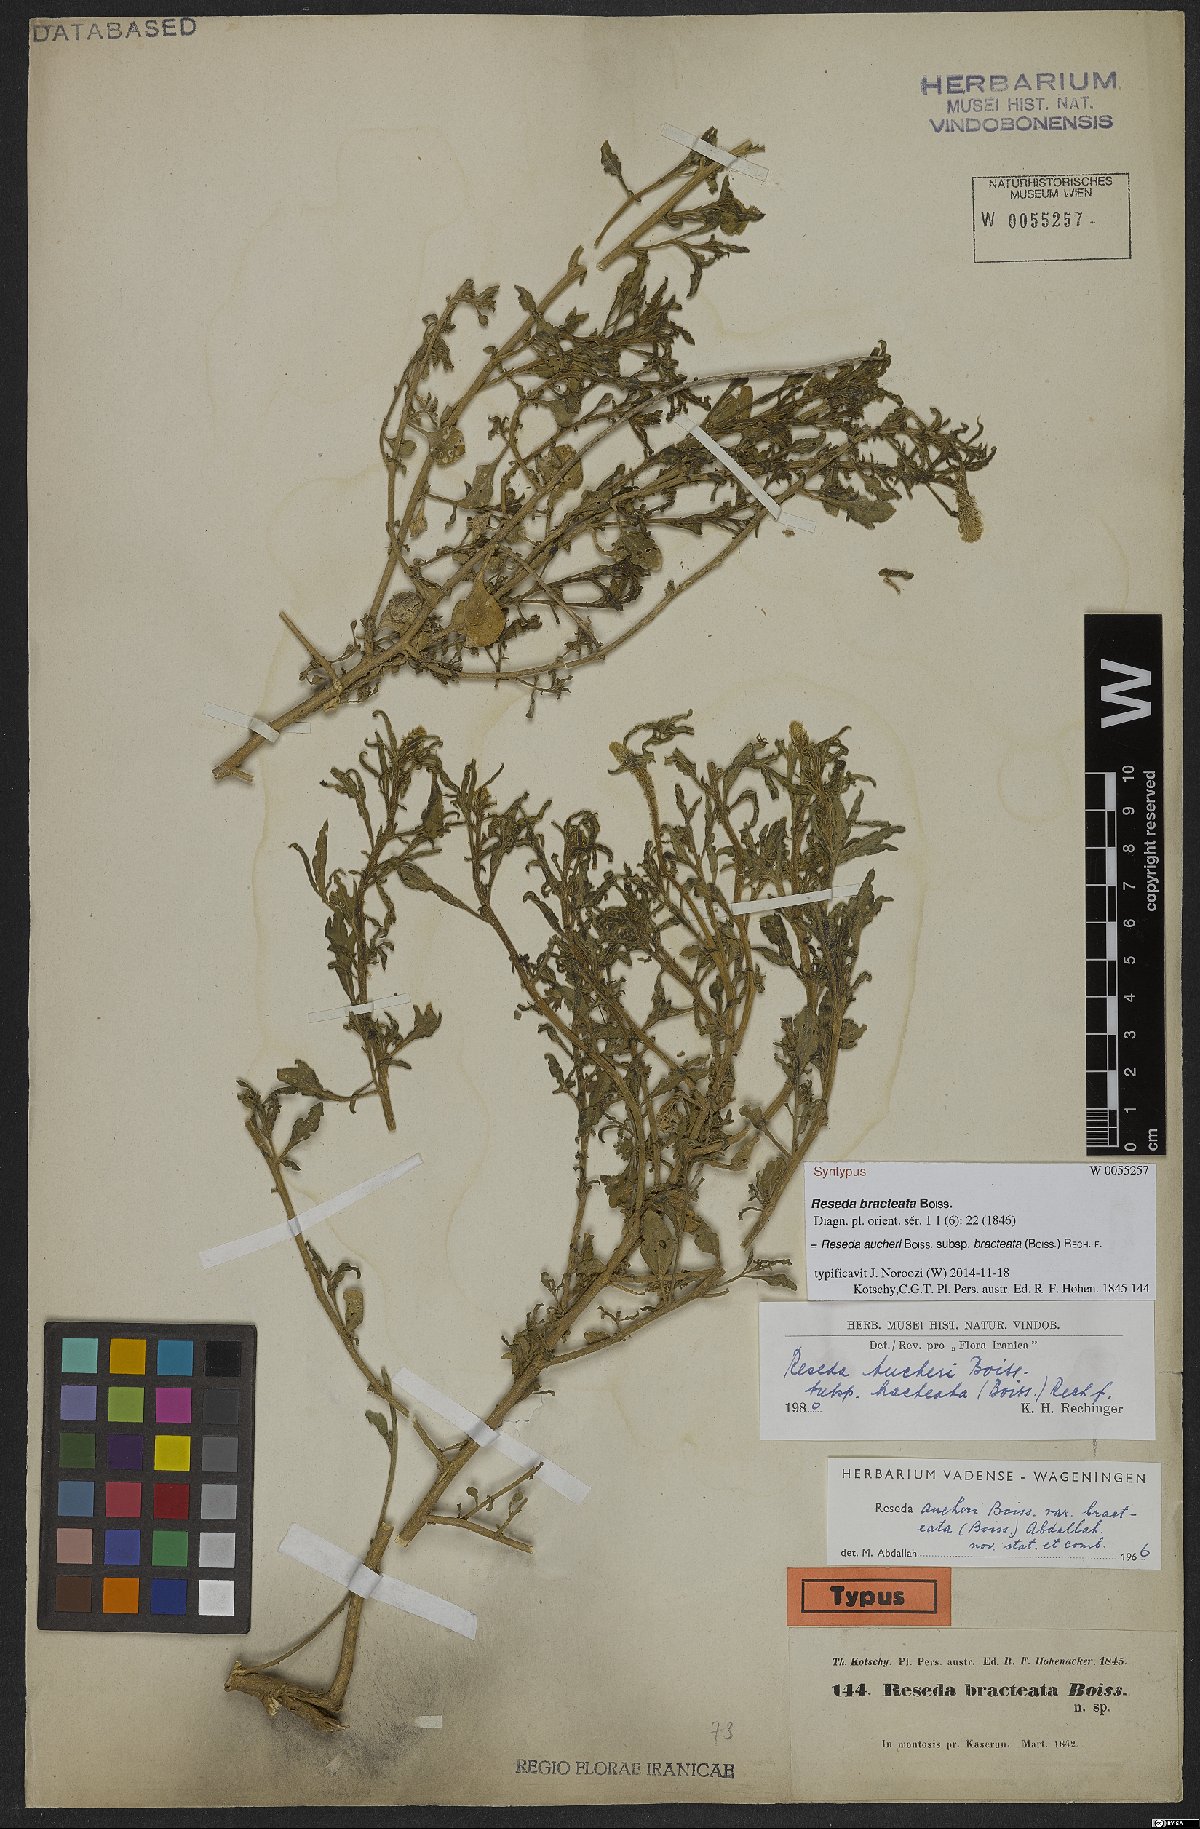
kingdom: Plantae
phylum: Tracheophyta
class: Magnoliopsida
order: Brassicales
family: Resedaceae
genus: Reseda
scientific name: Reseda aucheri
